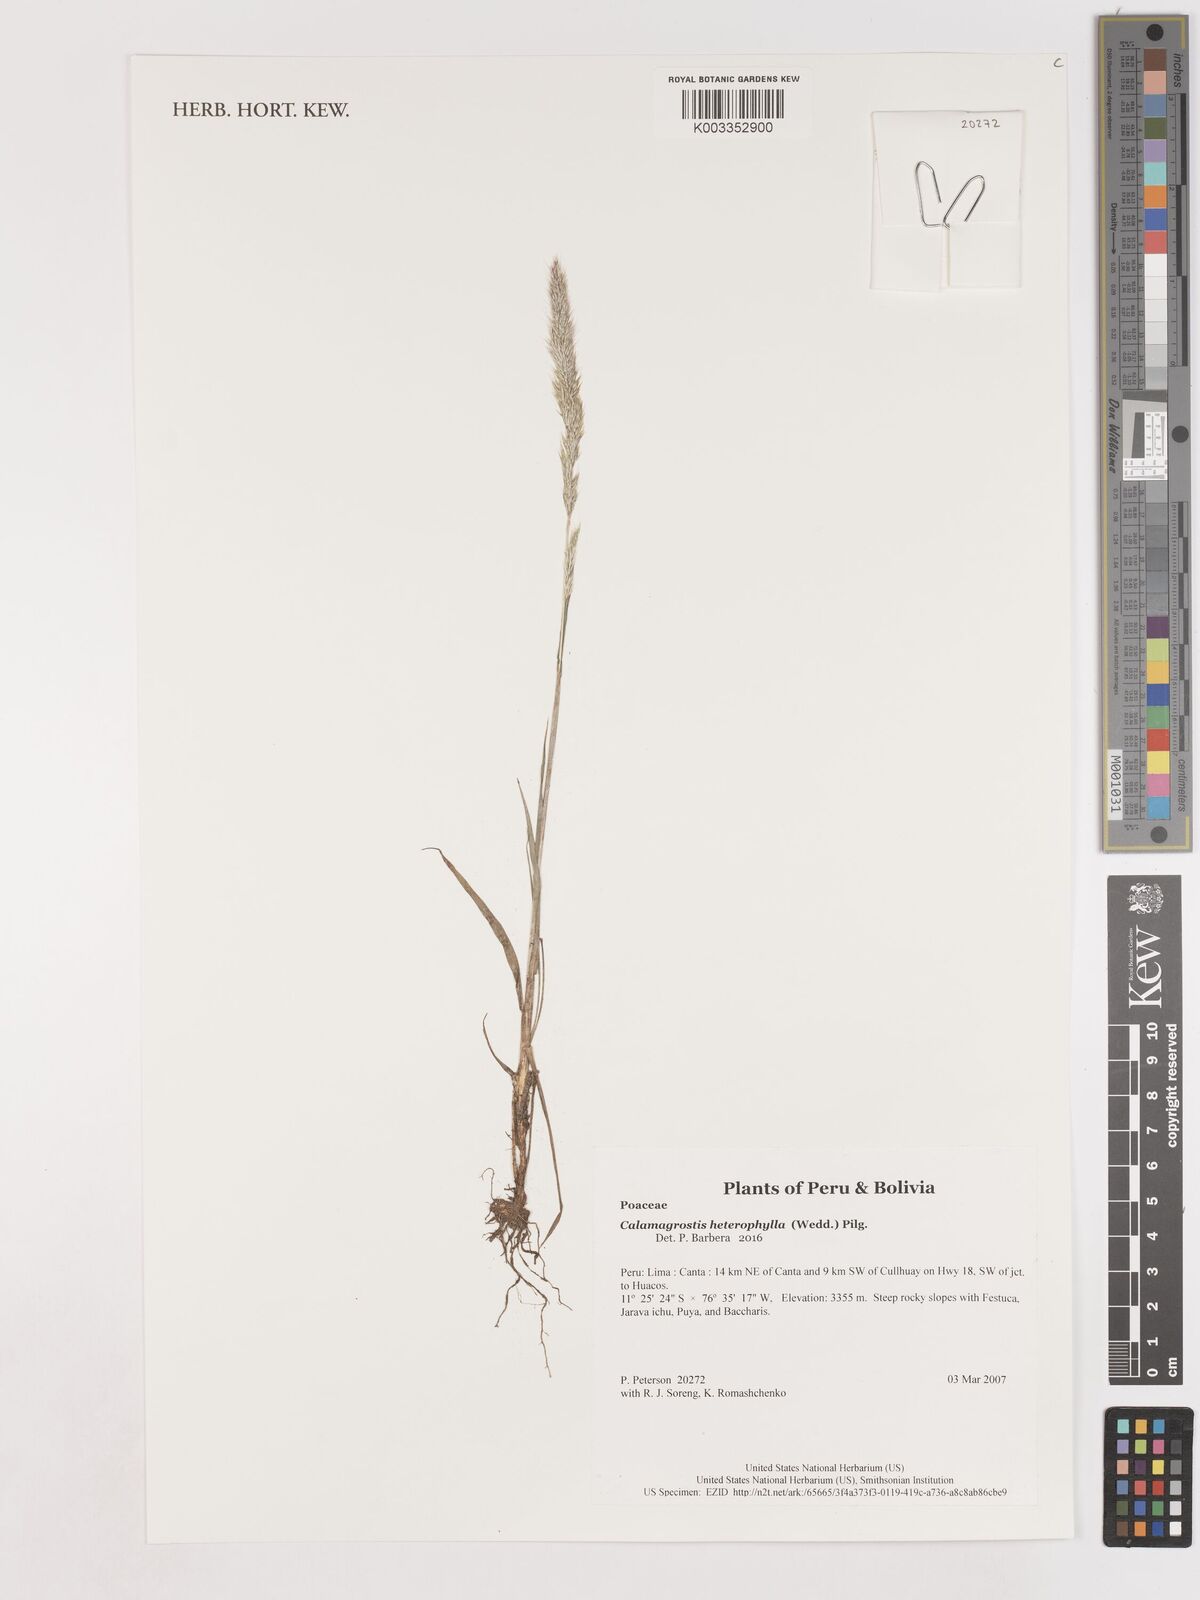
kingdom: Plantae
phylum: Tracheophyta
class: Liliopsida
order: Poales
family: Poaceae
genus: Cinnagrostis
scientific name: Cinnagrostis heterophylla
